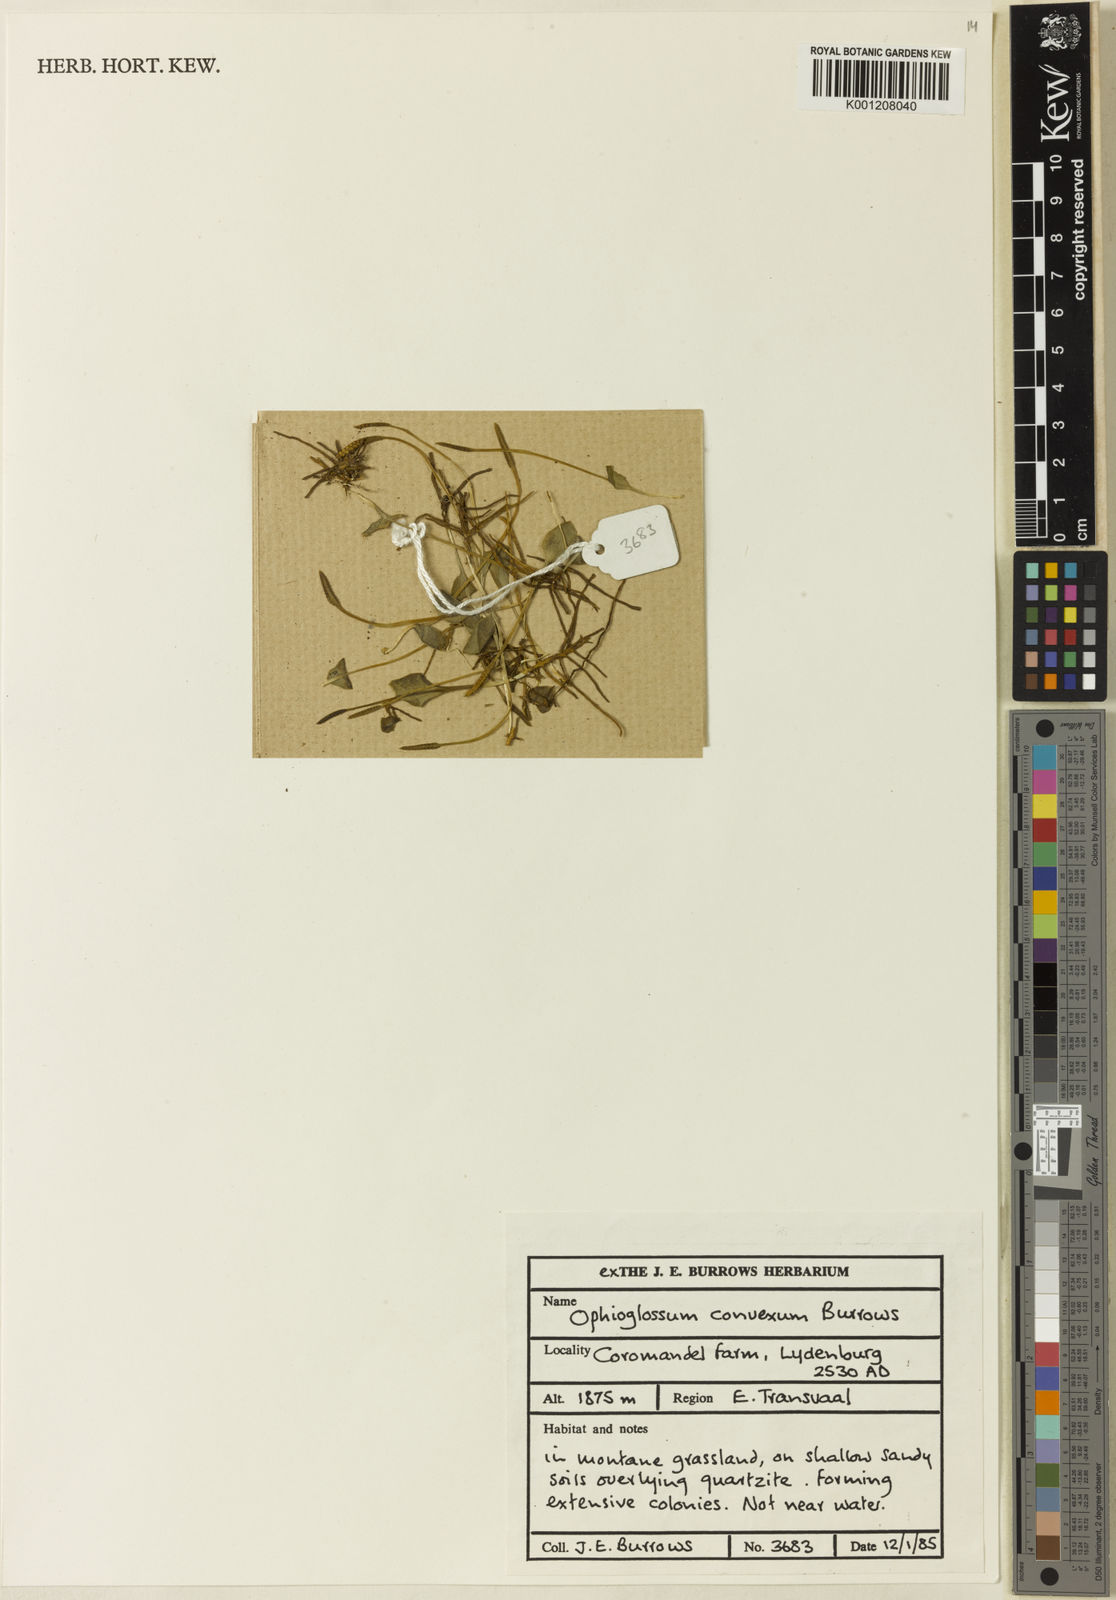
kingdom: Plantae
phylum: Tracheophyta
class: Polypodiopsida
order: Ophioglossales
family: Ophioglossaceae
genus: Ophioglossum
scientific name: Ophioglossum convexum
